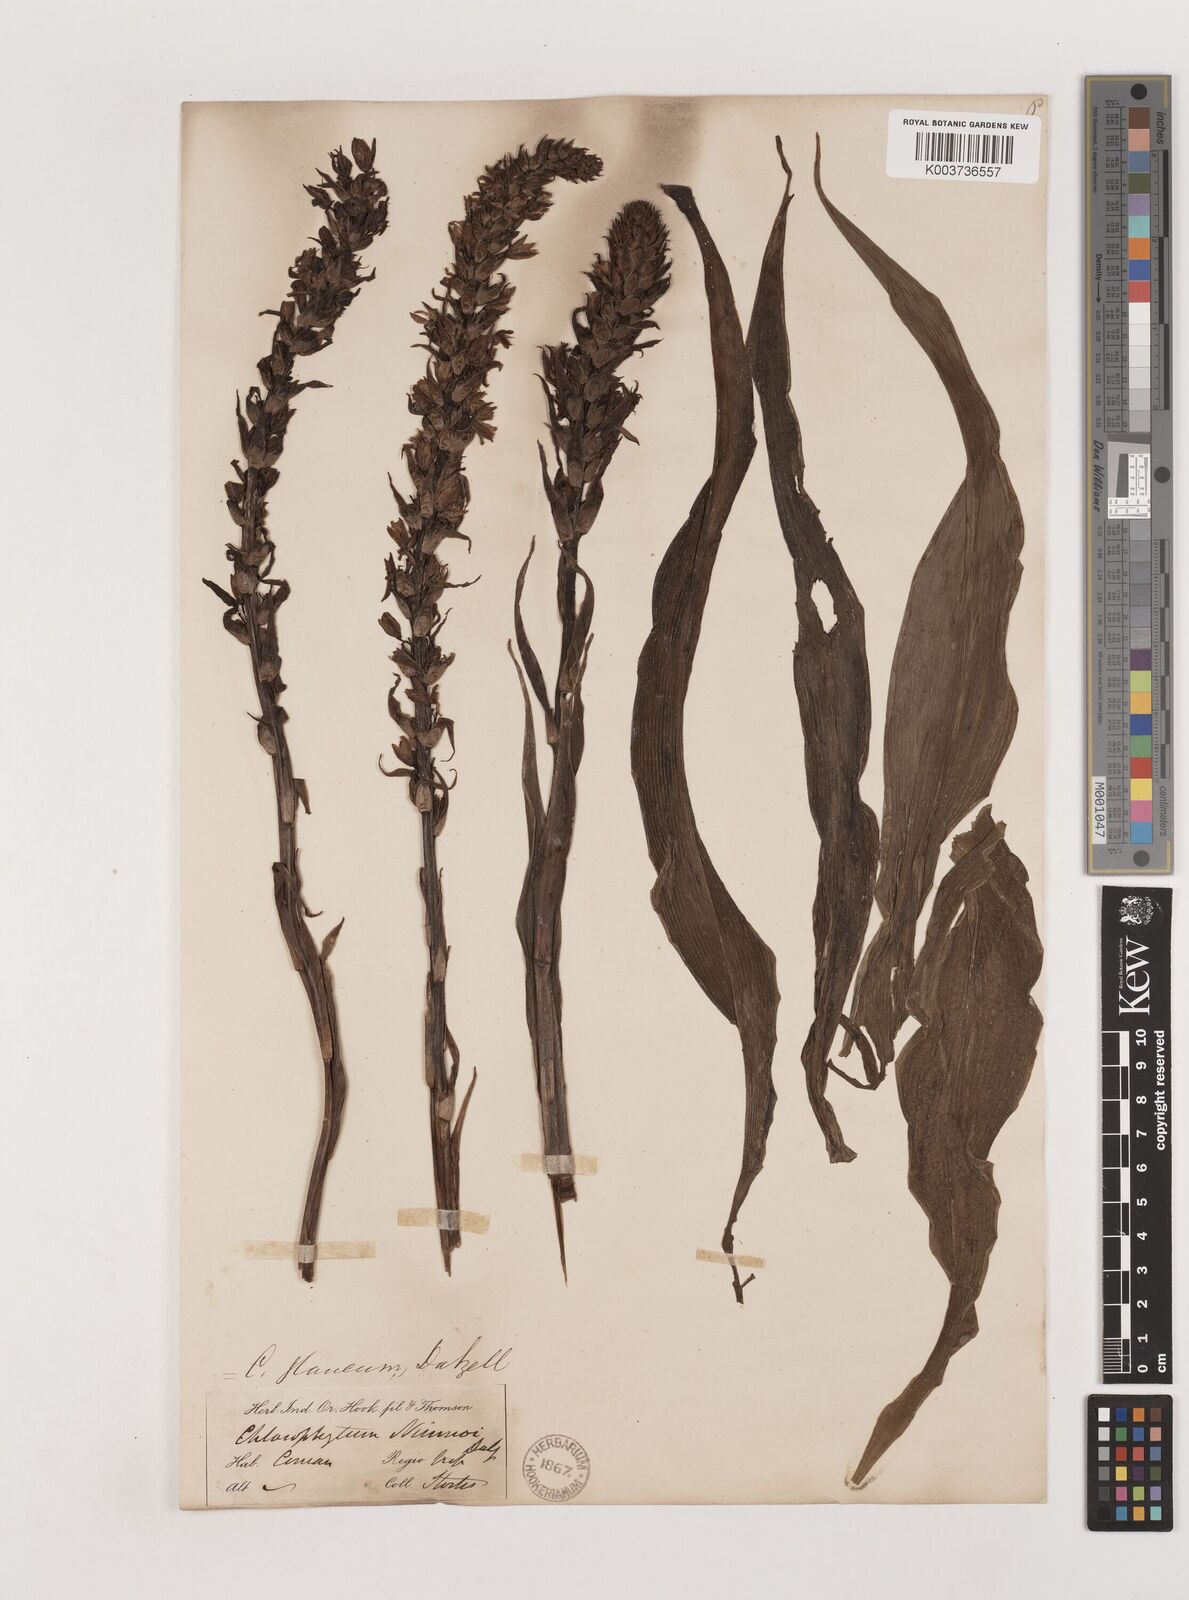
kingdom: Plantae
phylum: Tracheophyta
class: Liliopsida
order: Asparagales
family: Asparagaceae
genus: Chlorophytum
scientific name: Chlorophytum glaucum
